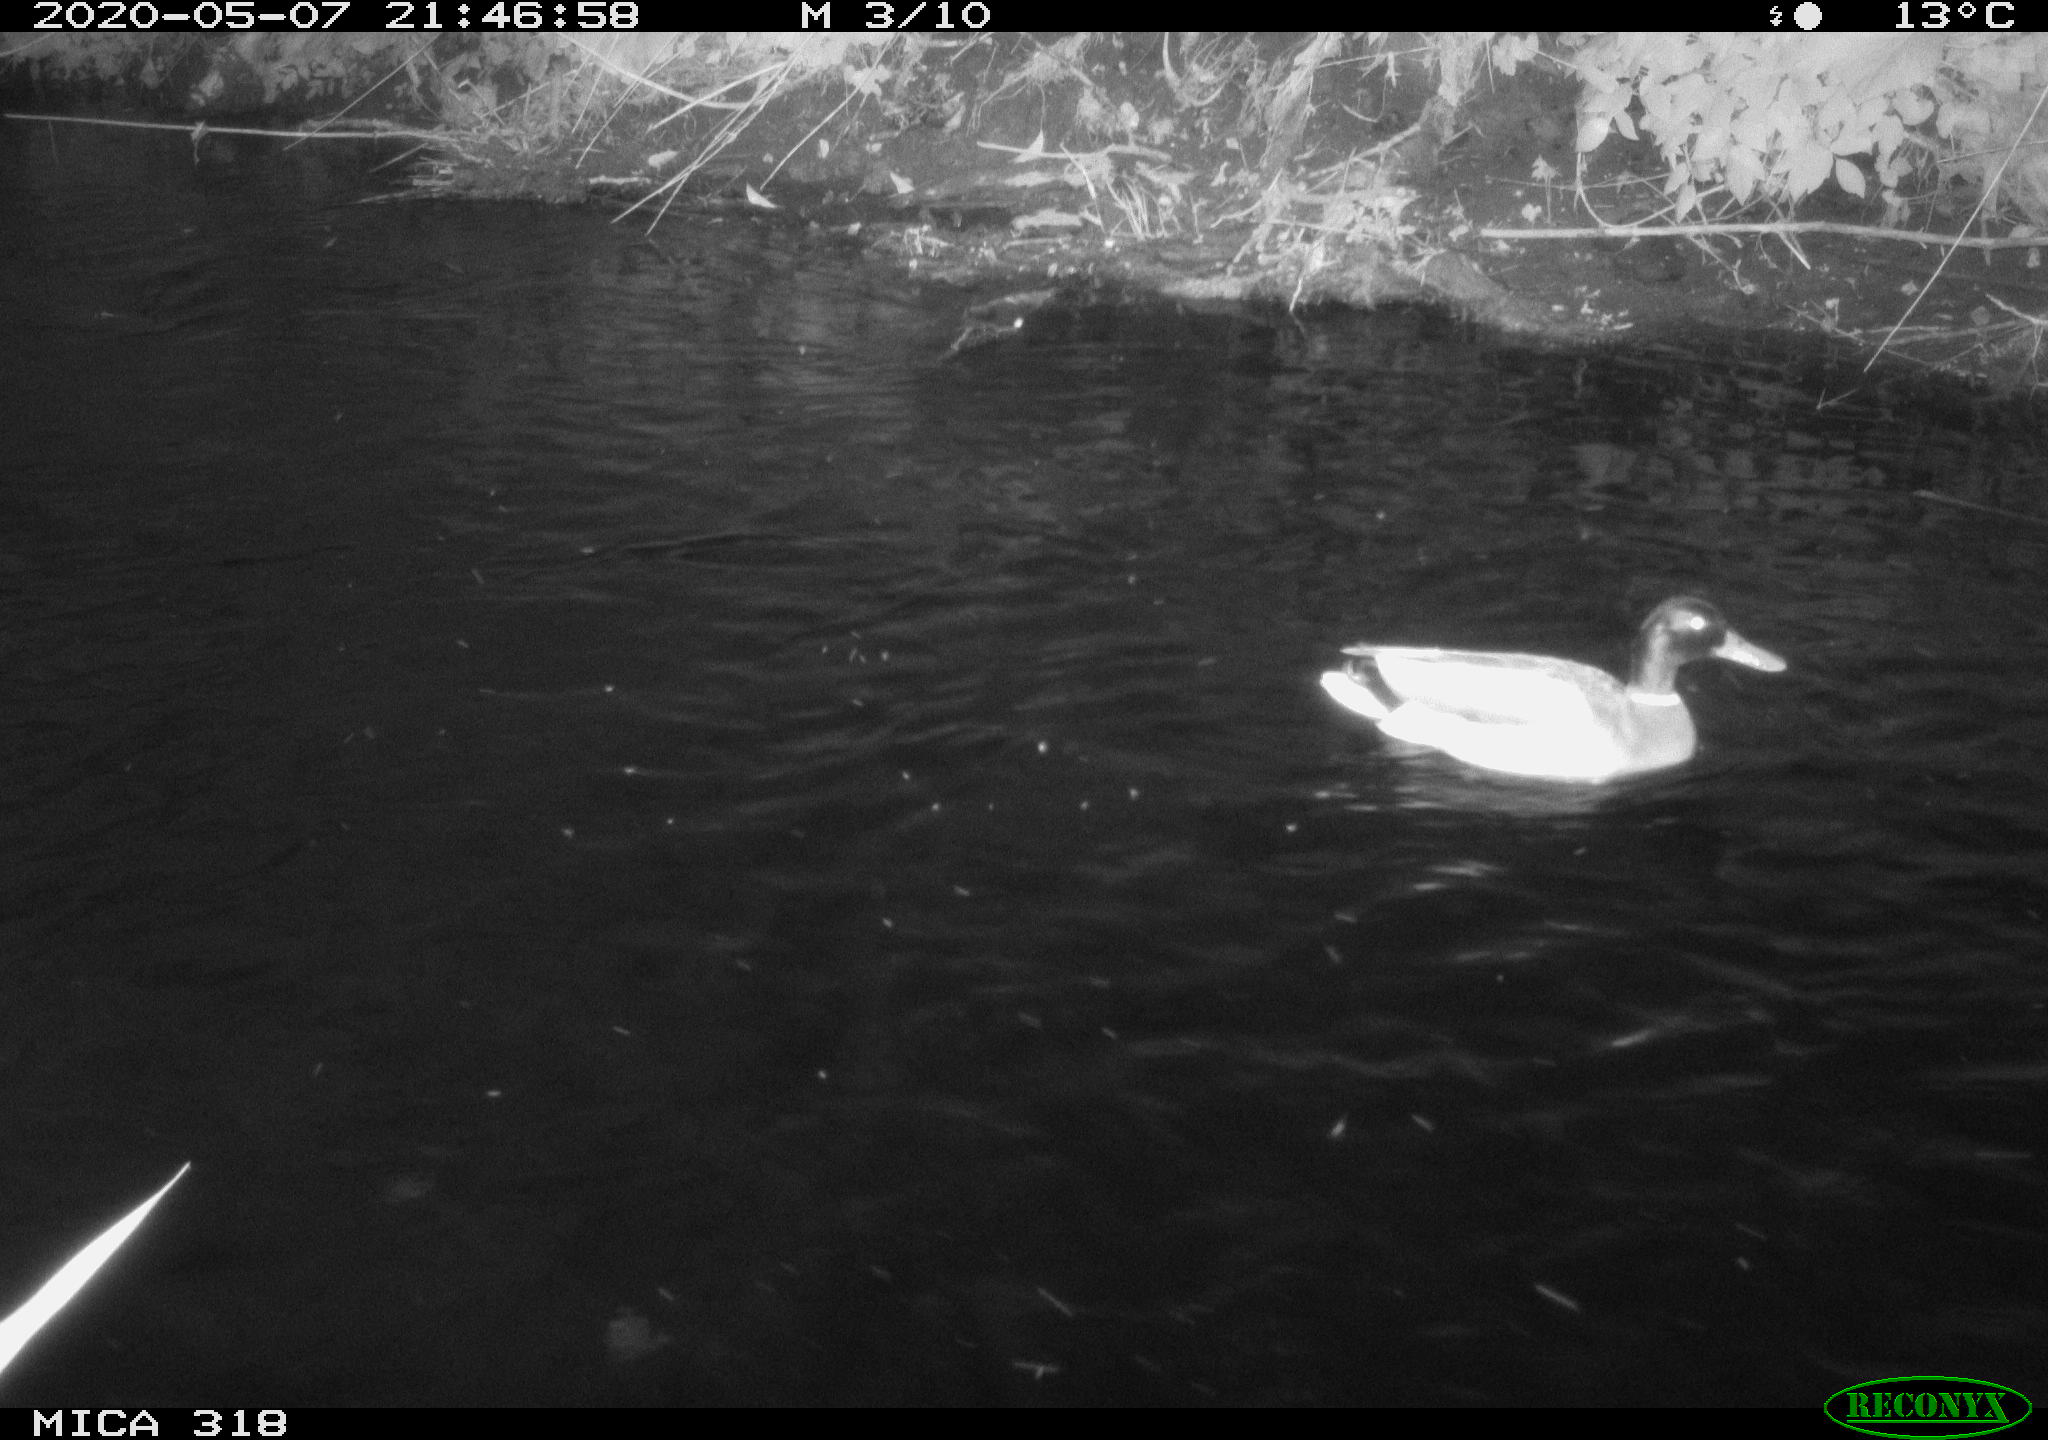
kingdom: Animalia
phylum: Chordata
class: Aves
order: Anseriformes
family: Anatidae
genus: Anas
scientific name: Anas platyrhynchos
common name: Mallard
